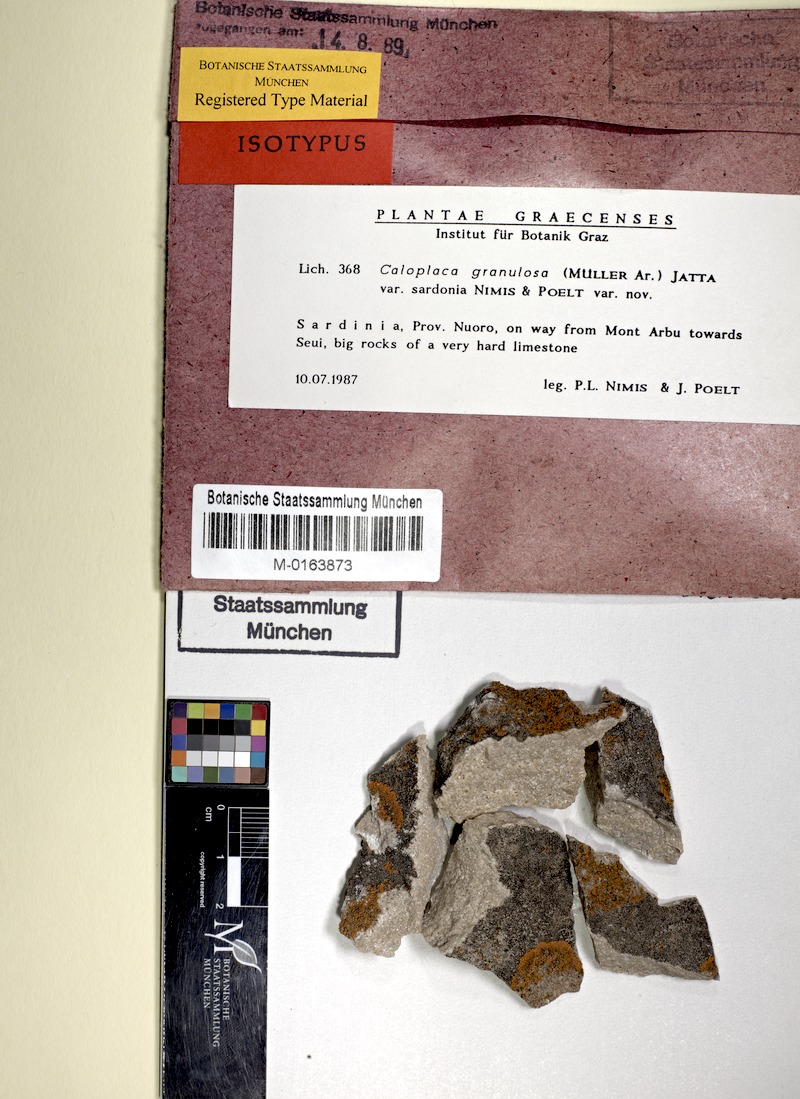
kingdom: Fungi
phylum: Ascomycota
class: Lecanoromycetes
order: Teloschistales
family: Teloschistaceae
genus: Flavoplaca
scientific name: Flavoplaca granulosa
